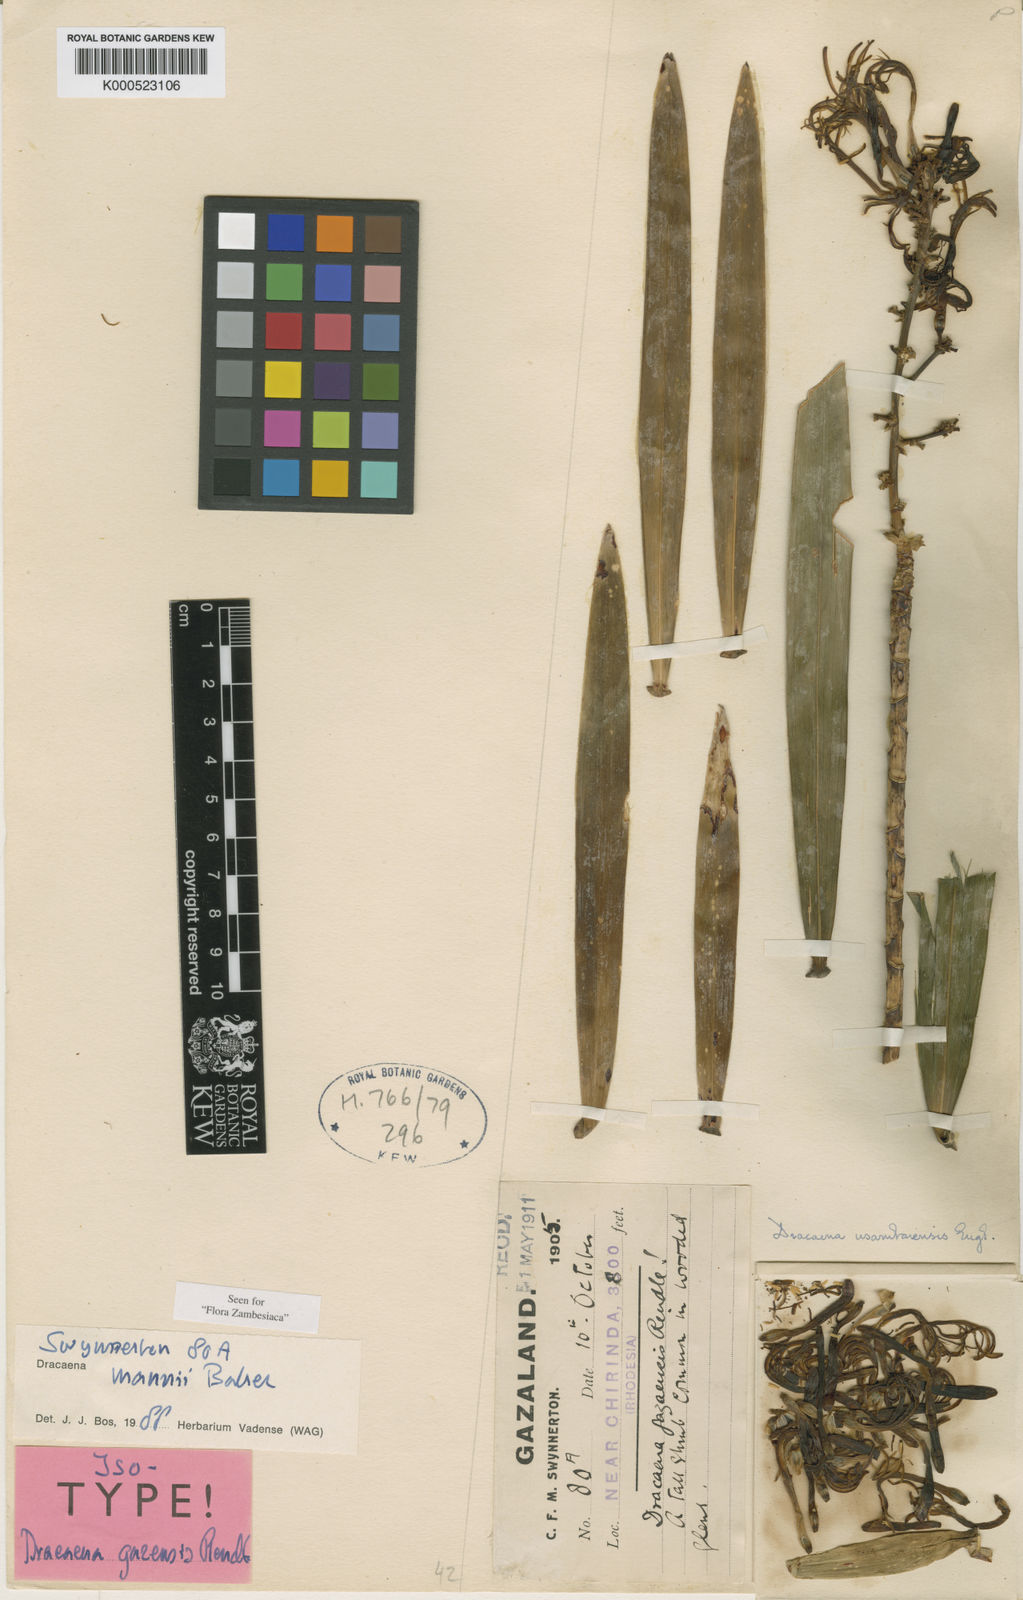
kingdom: Plantae
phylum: Tracheophyta
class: Liliopsida
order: Asparagales
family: Asparagaceae
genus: Dracaena
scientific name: Dracaena usambarensis
